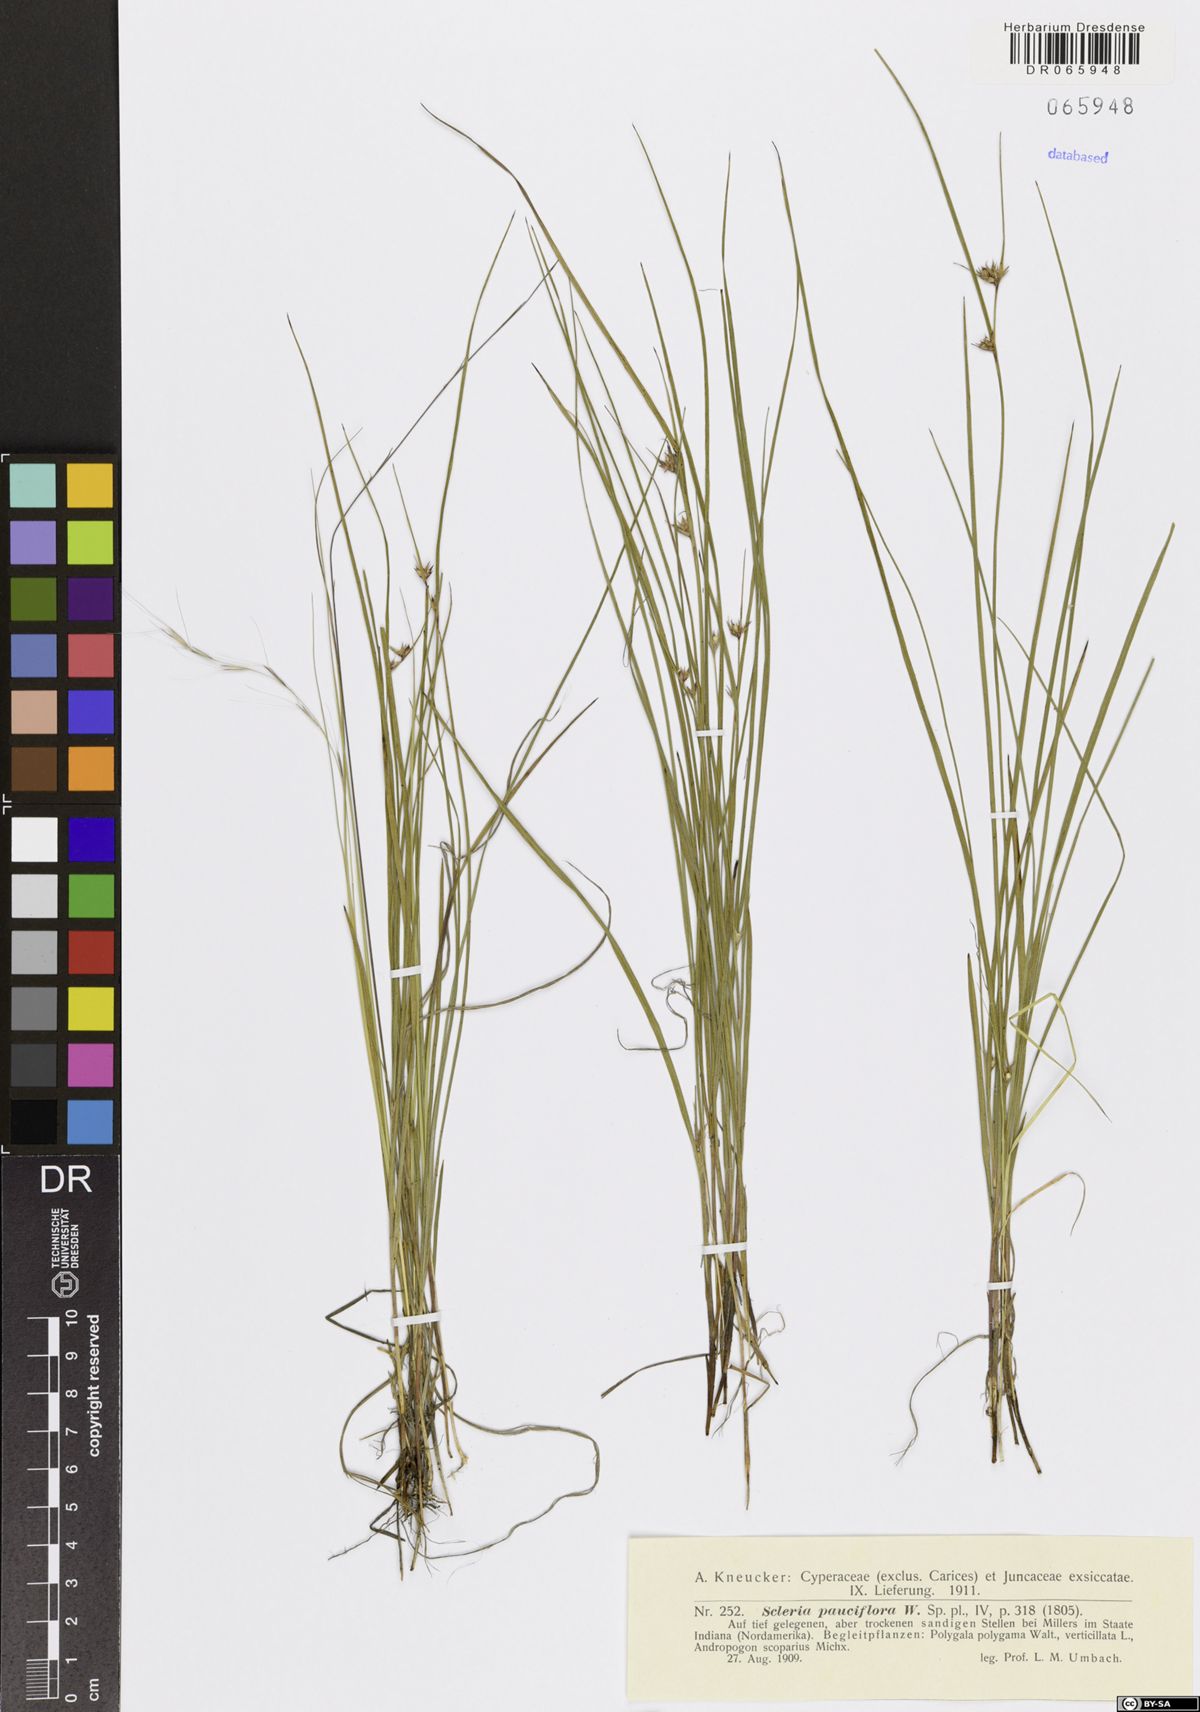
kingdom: Plantae
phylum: Tracheophyta
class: Liliopsida
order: Poales
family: Cyperaceae
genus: Scleria
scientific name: Scleria pauciflora
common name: Few-flowered nutrush
